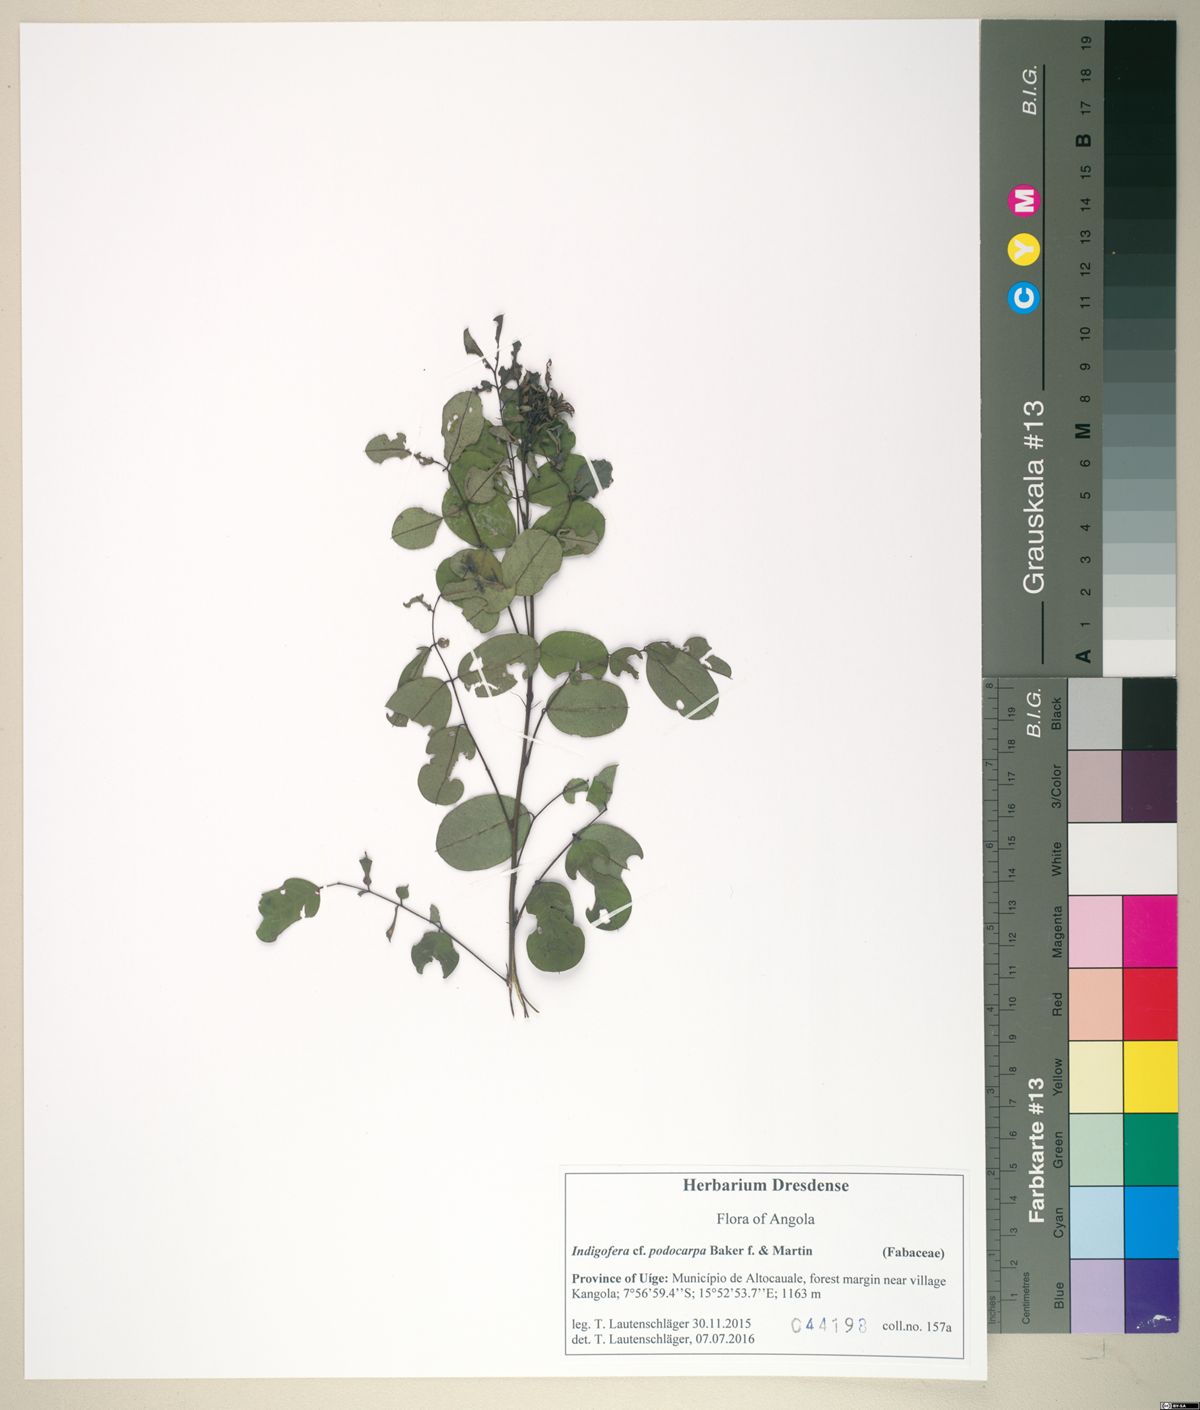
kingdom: Plantae
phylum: Tracheophyta
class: Magnoliopsida
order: Fabales
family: Fabaceae
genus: Indigofera
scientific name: Indigofera podocarpa
